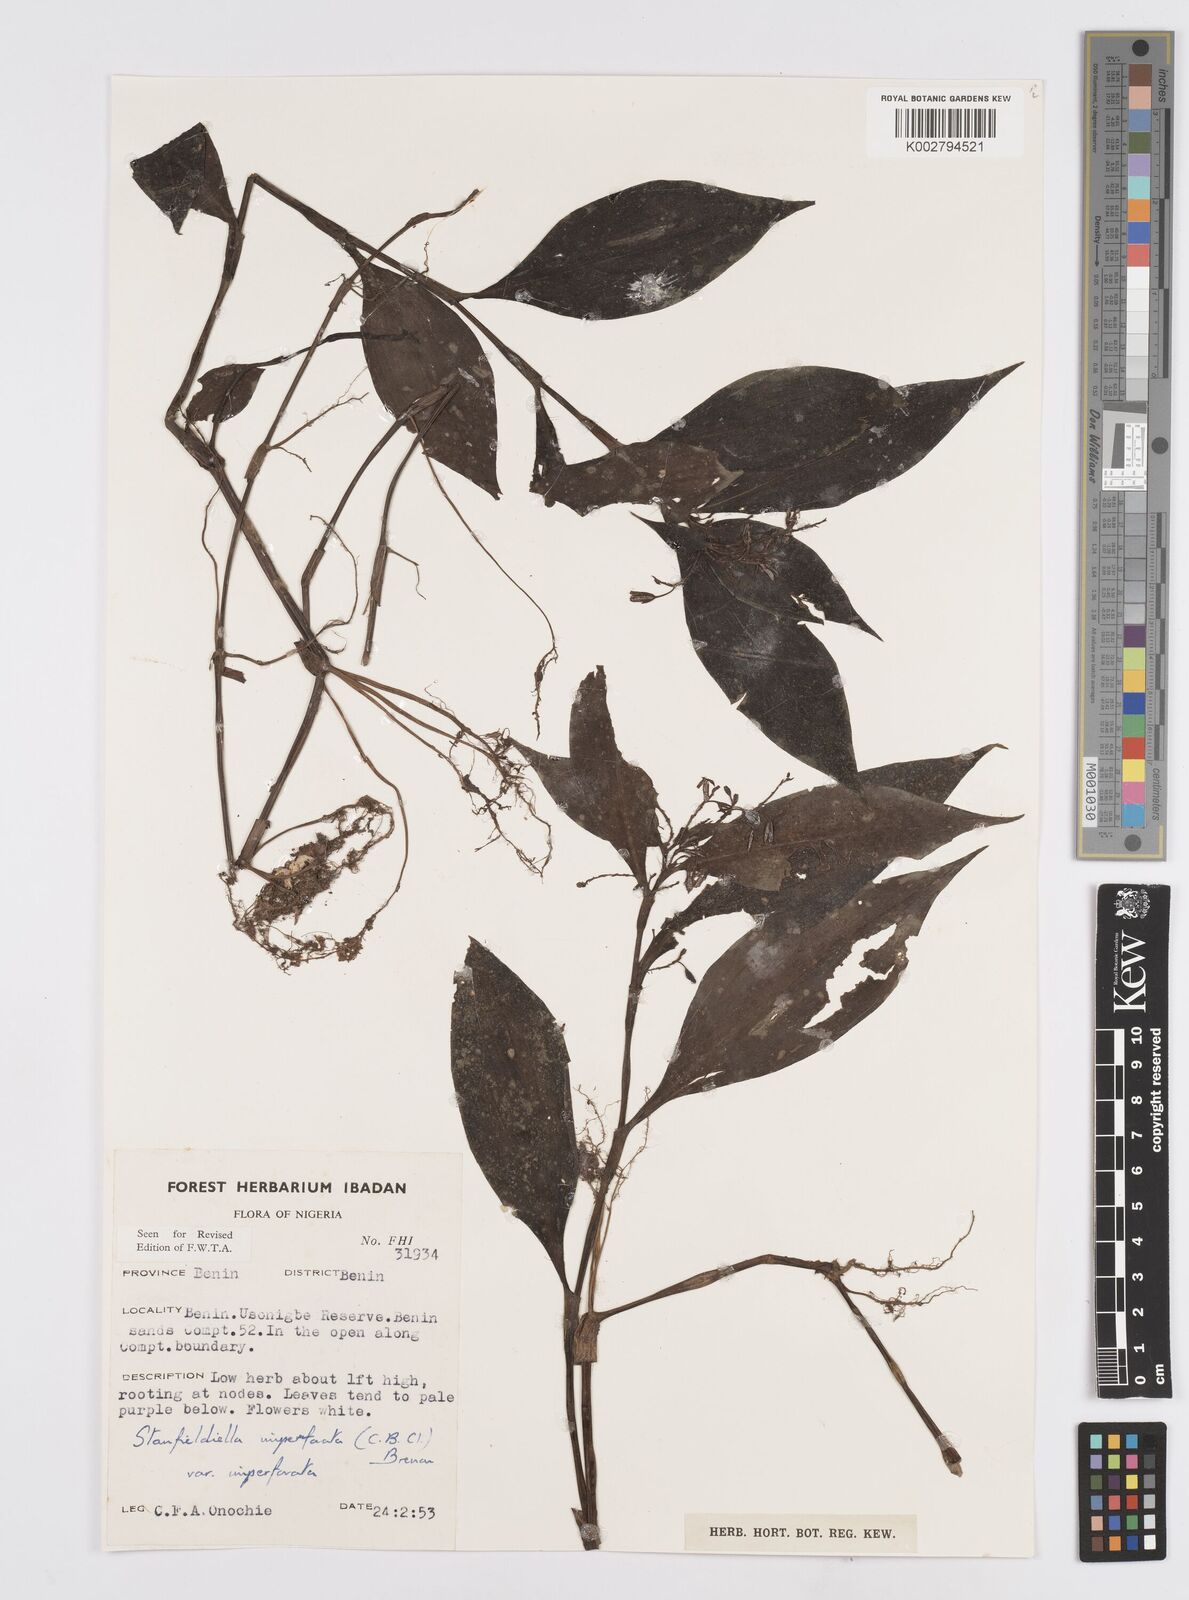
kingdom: Plantae
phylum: Tracheophyta
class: Liliopsida
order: Commelinales
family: Commelinaceae
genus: Stanfieldiella
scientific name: Stanfieldiella imperforata
